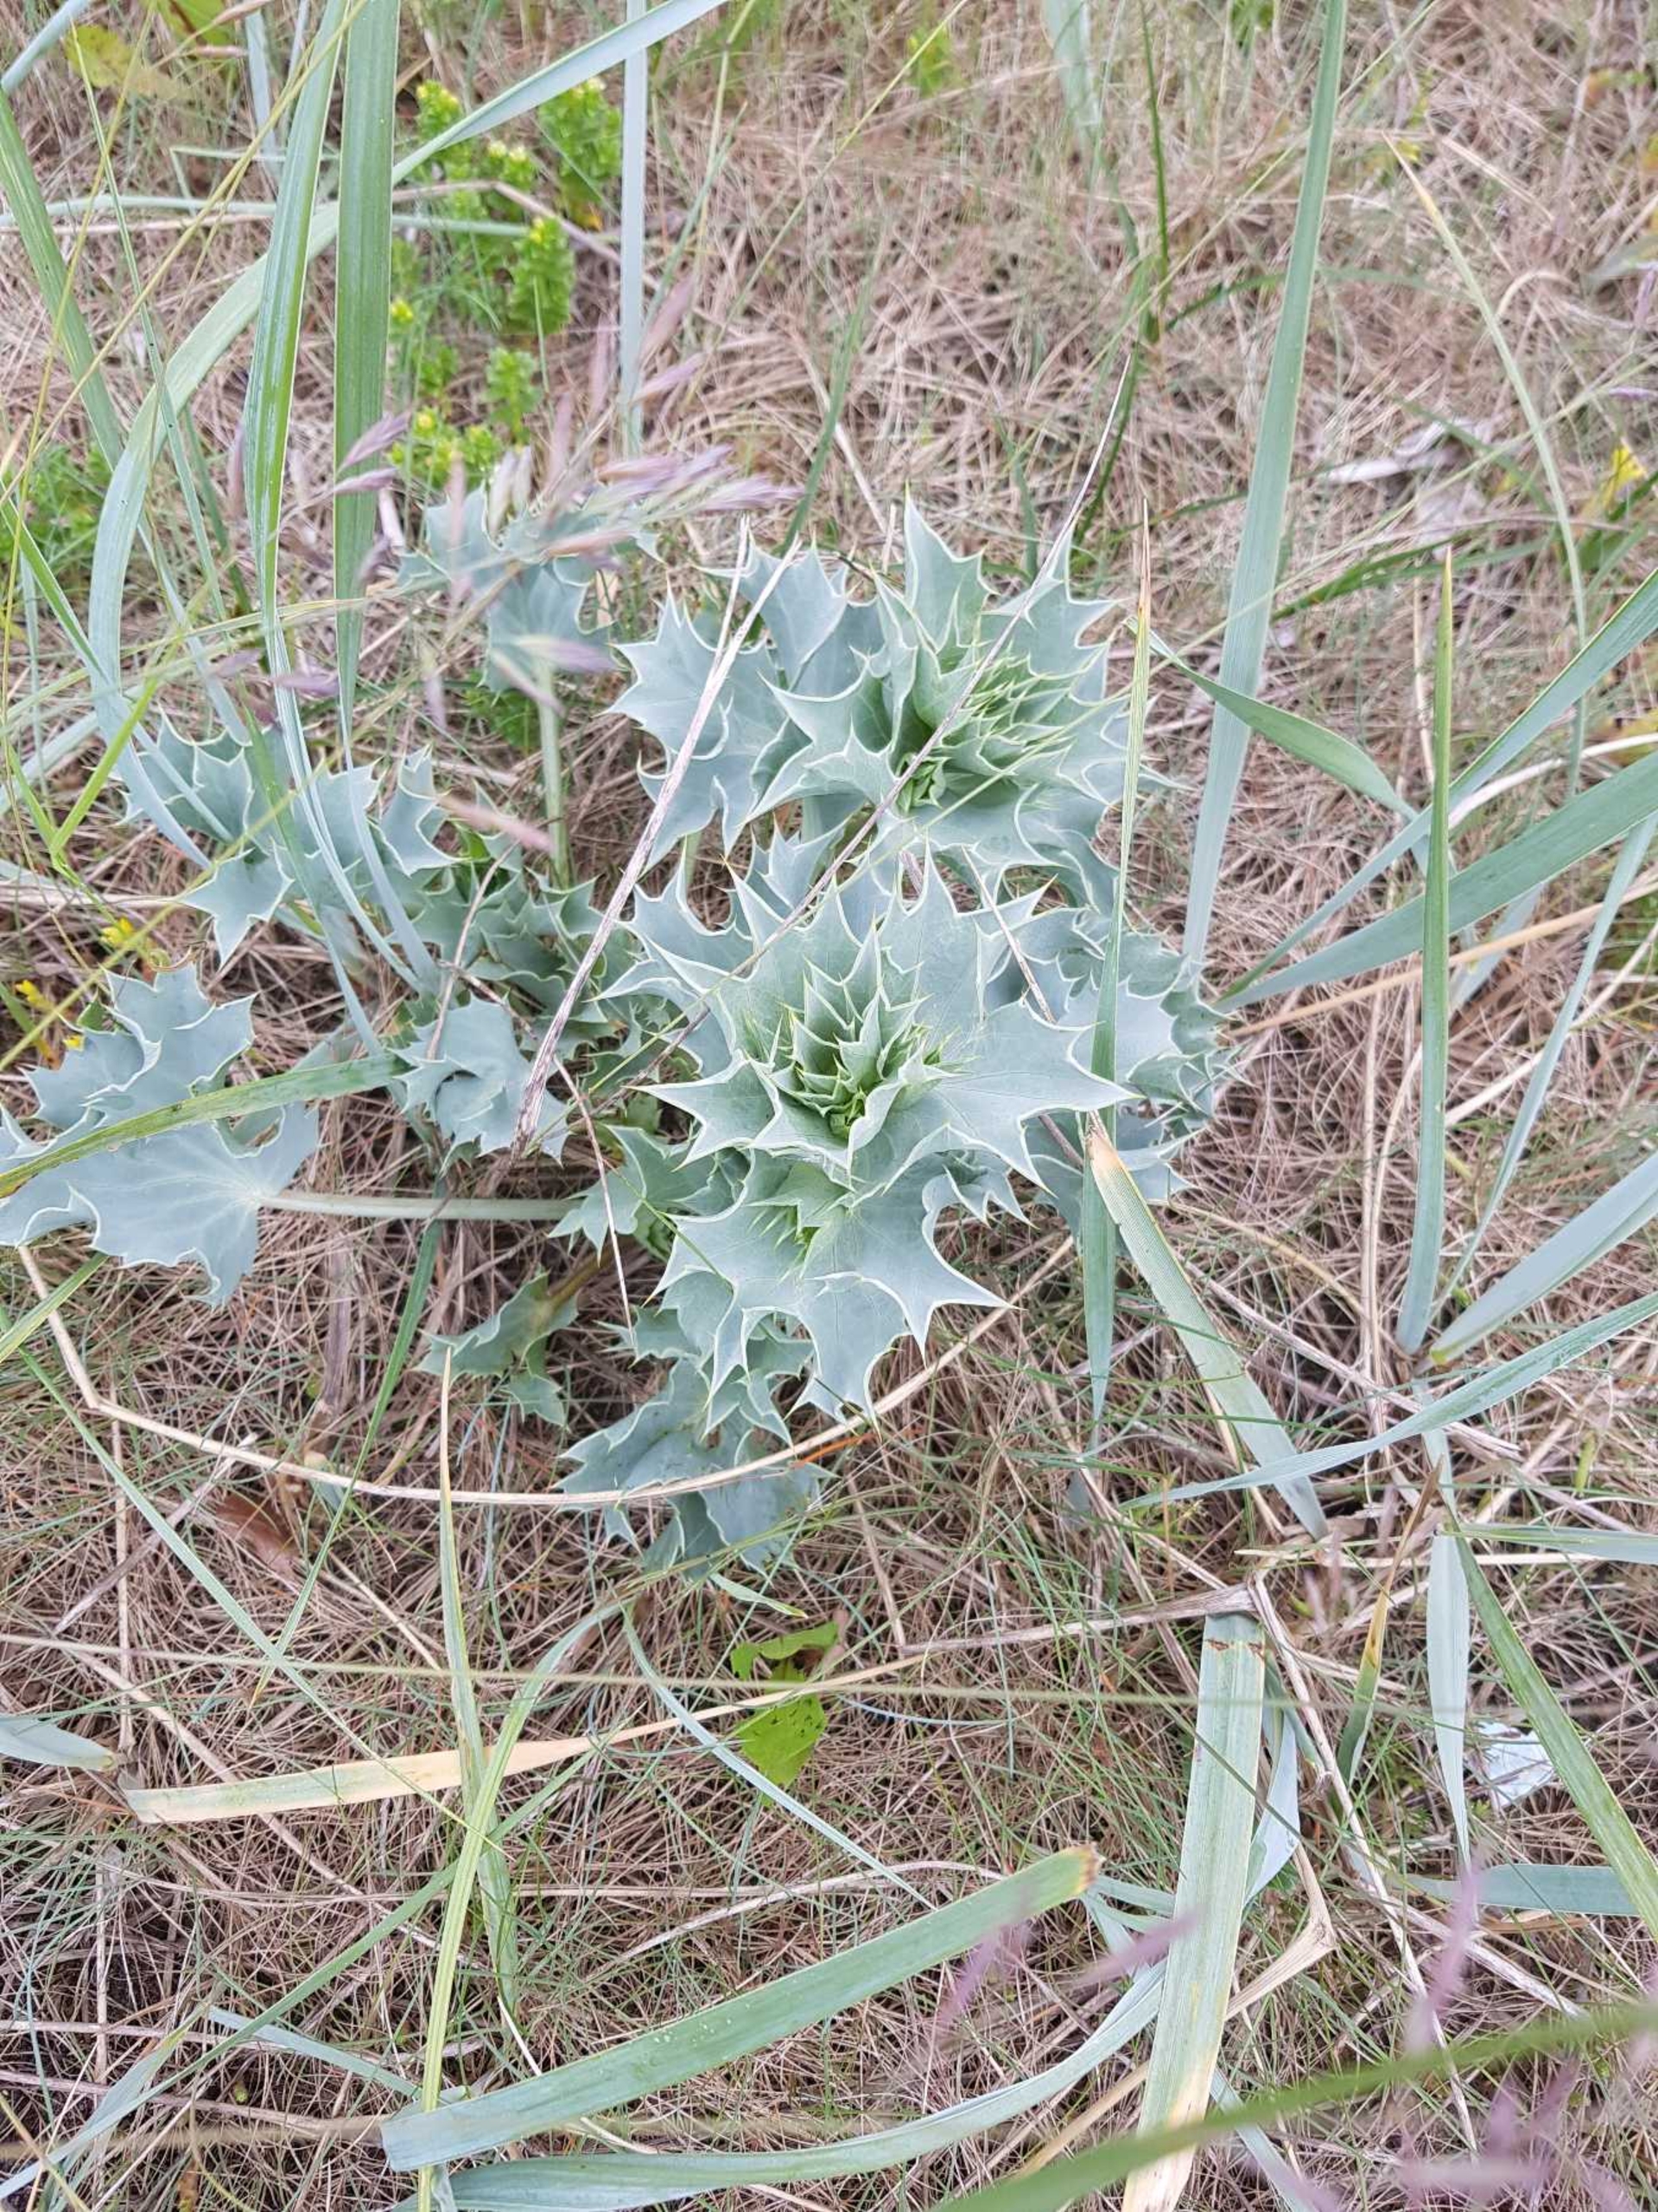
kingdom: Plantae
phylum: Tracheophyta
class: Magnoliopsida
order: Apiales
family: Apiaceae
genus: Eryngium
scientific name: Eryngium maritimum
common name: Strand-mandstro
